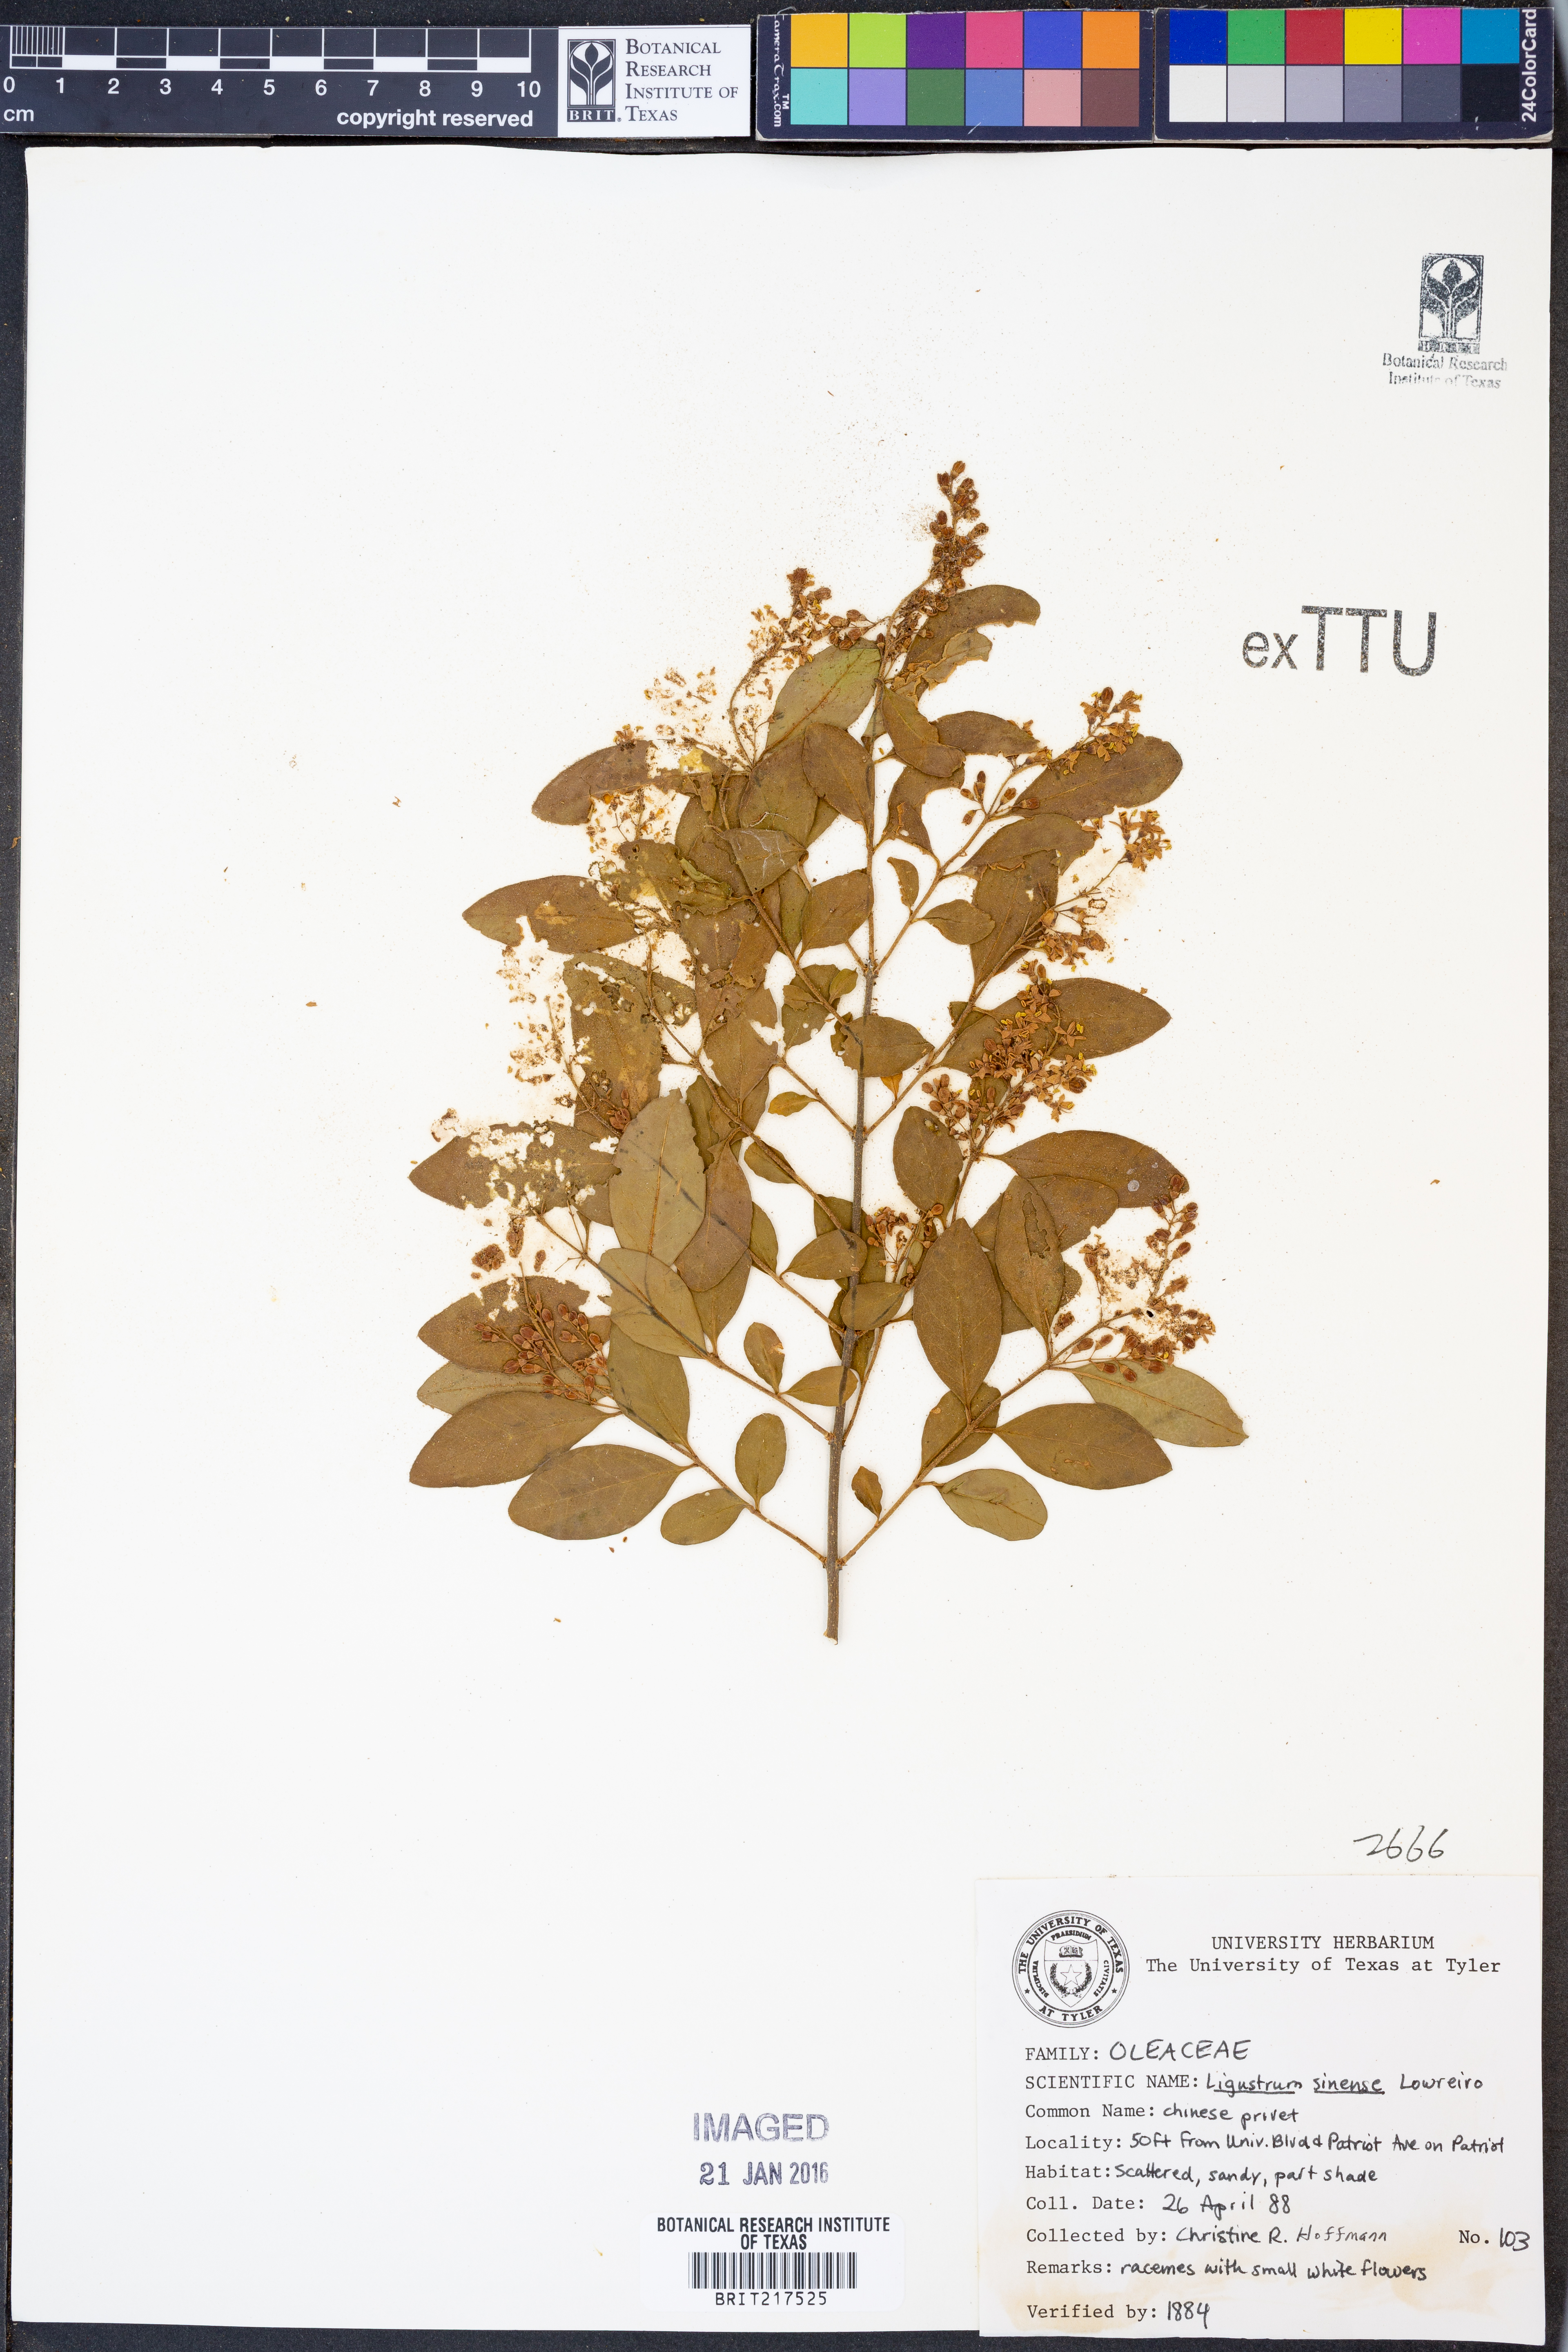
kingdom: Plantae
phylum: Tracheophyta
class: Magnoliopsida
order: Lamiales
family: Oleaceae
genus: Ligustrum
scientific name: Ligustrum sinense
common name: Chinese privet
